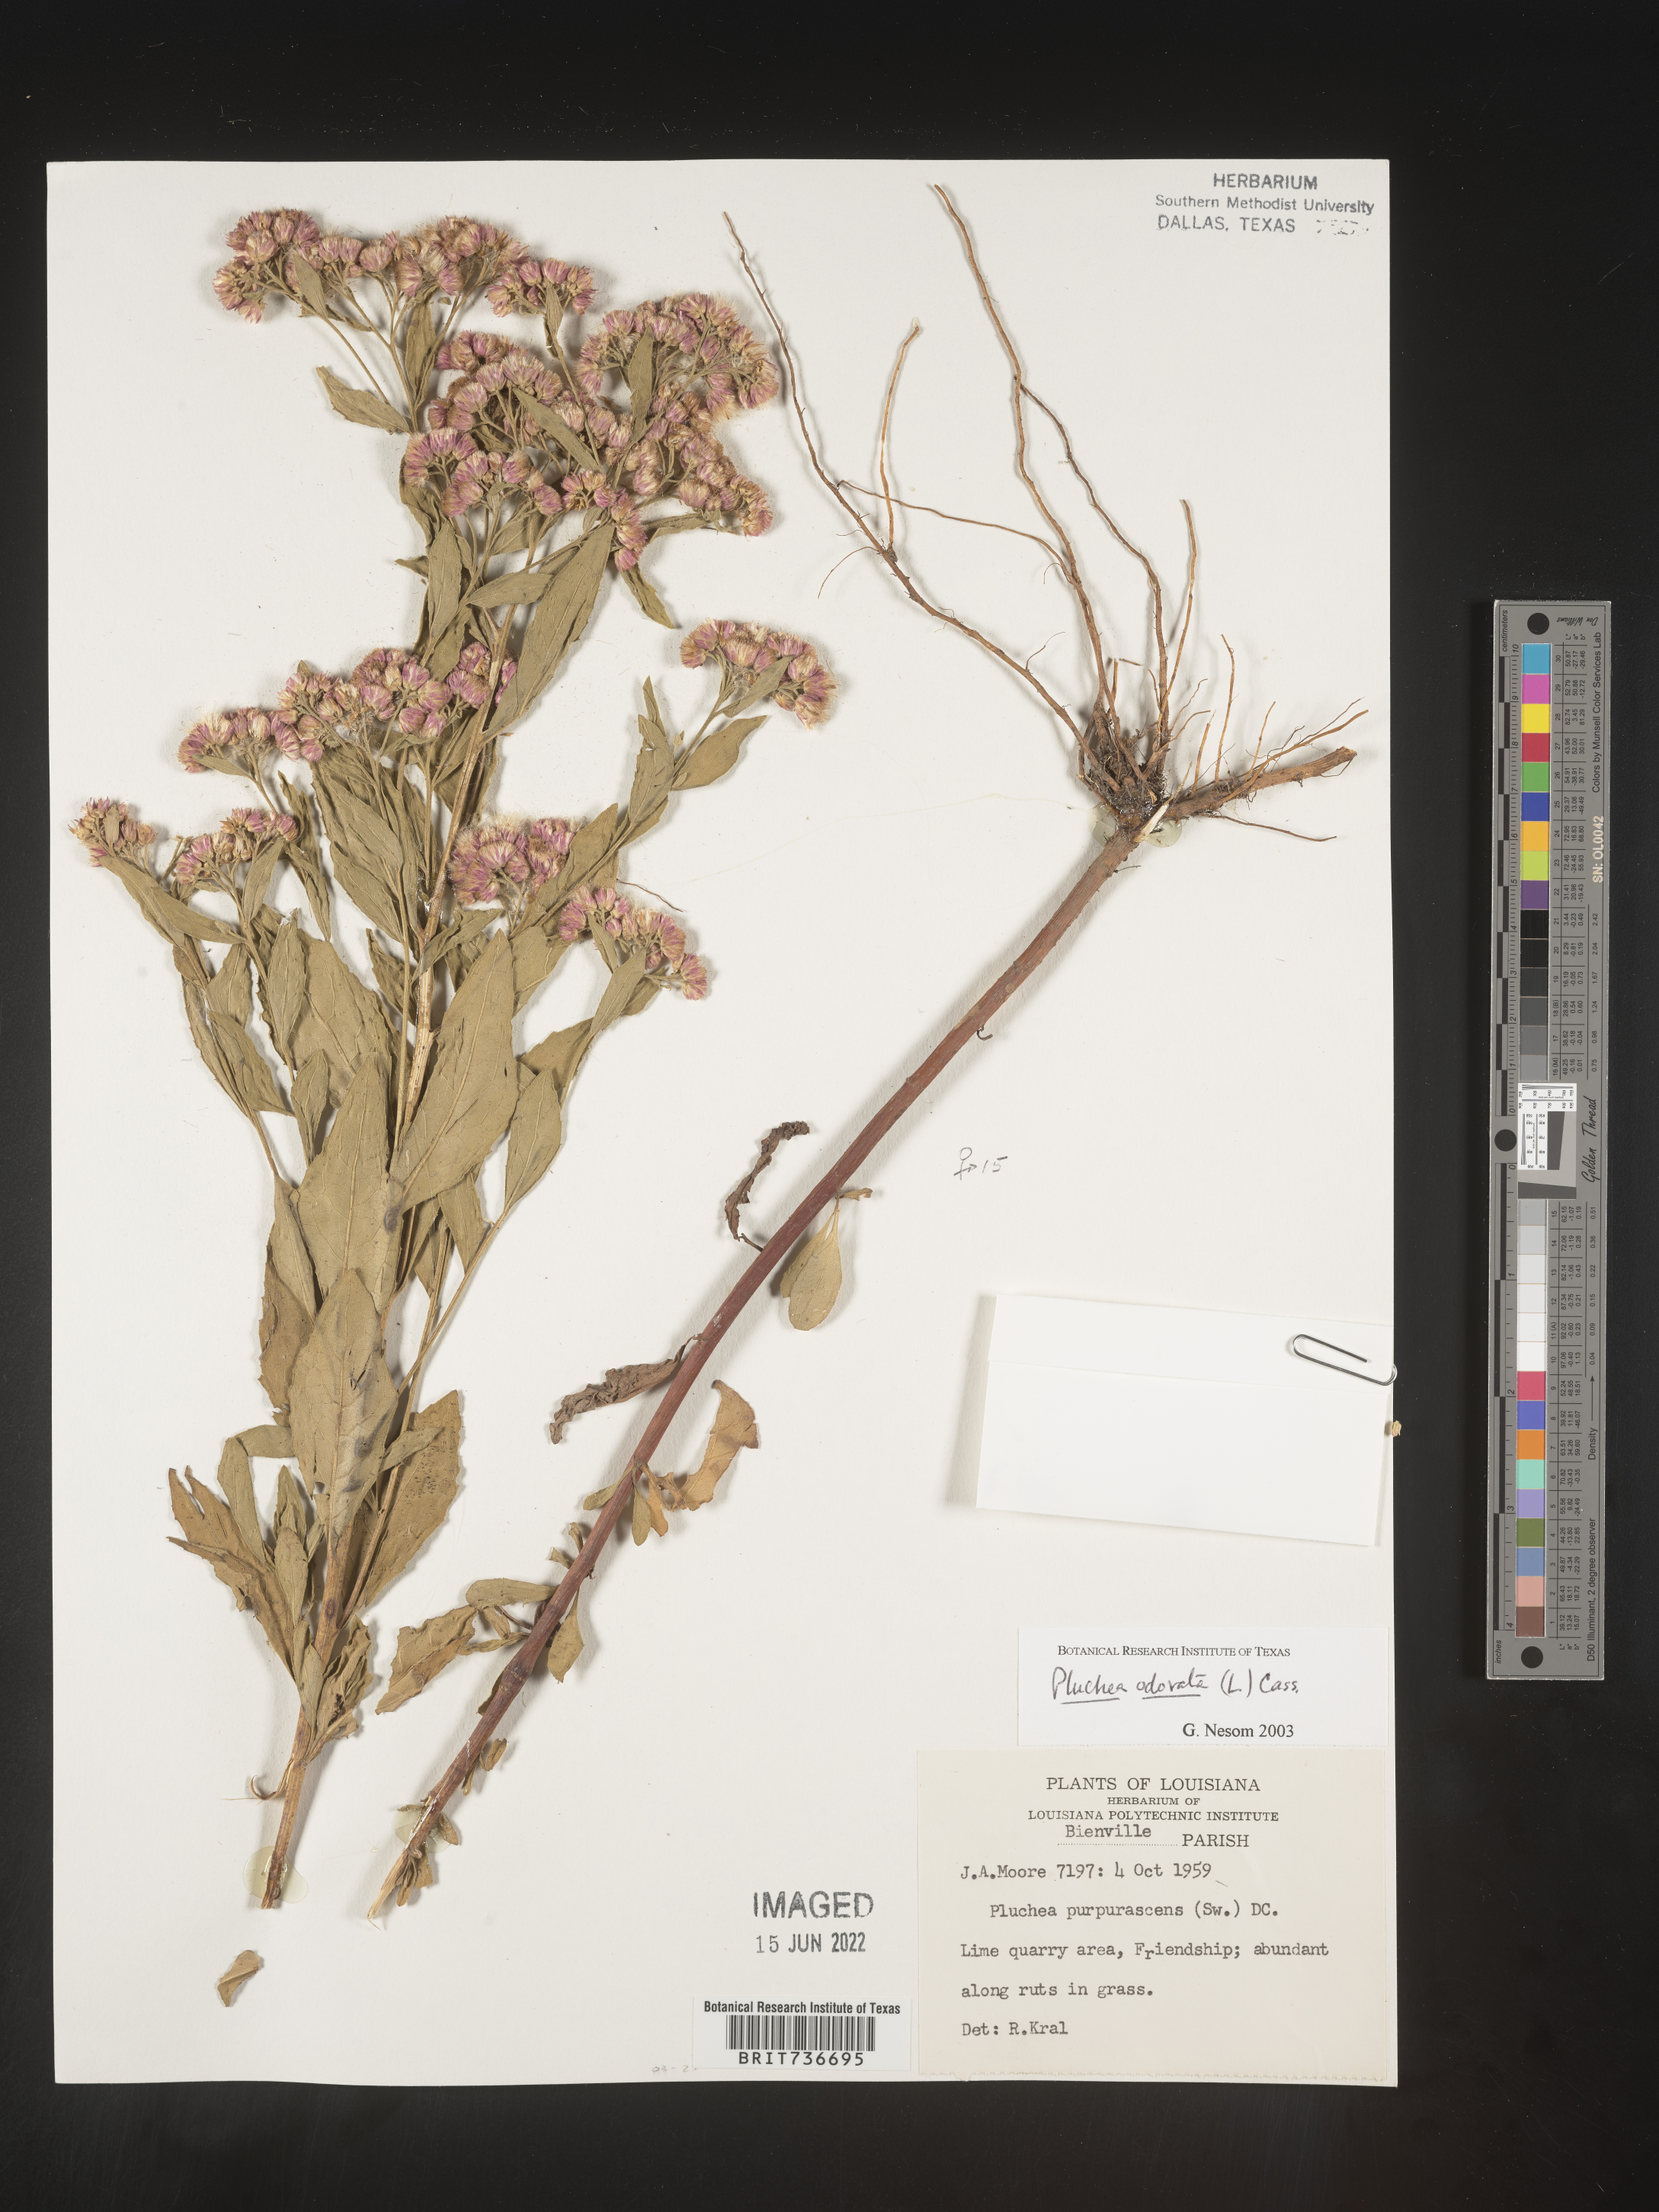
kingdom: Plantae
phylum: Tracheophyta
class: Magnoliopsida
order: Asterales
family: Asteraceae
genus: Pluchea
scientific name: Pluchea odorata
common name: Saltmarsh fleabane
